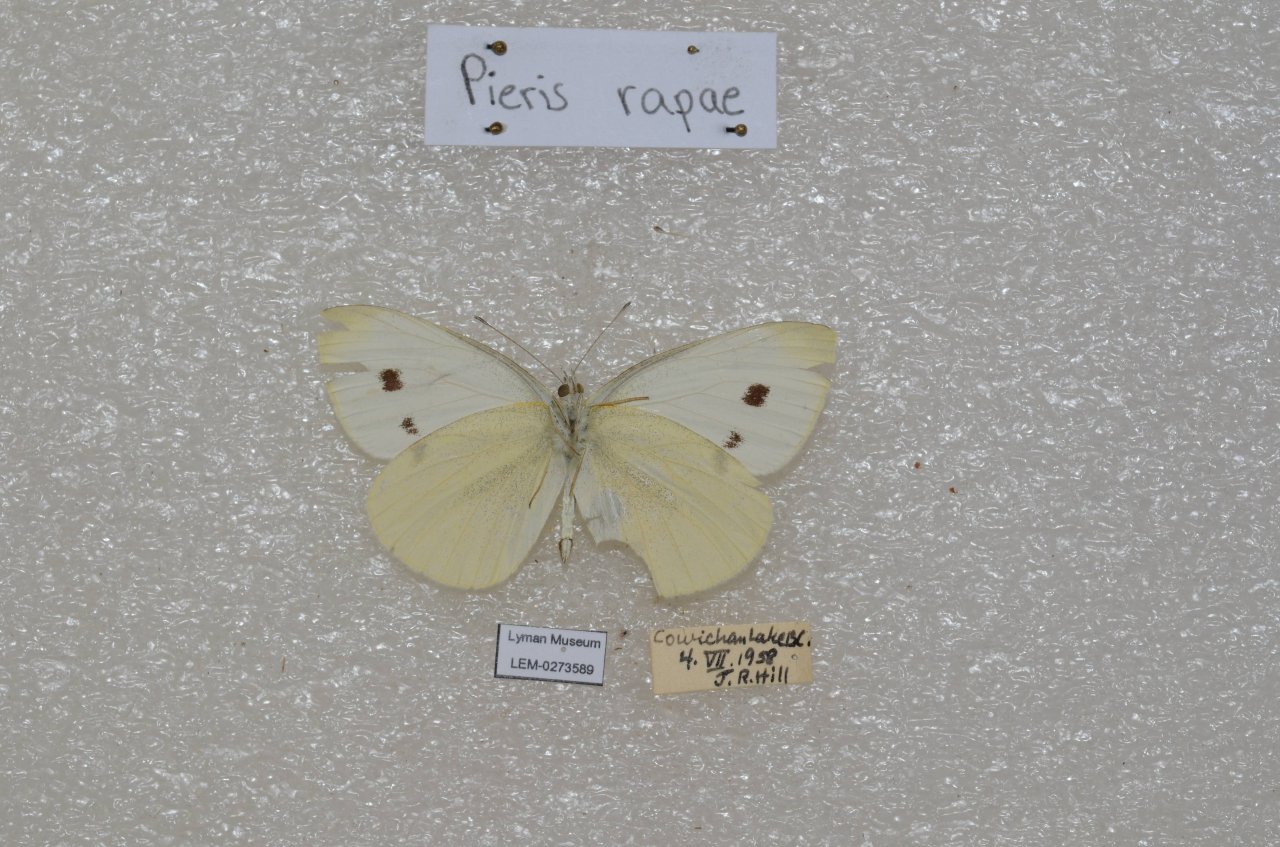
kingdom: Animalia
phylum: Arthropoda
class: Insecta
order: Lepidoptera
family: Pieridae
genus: Pieris
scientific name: Pieris rapae
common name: Cabbage White
